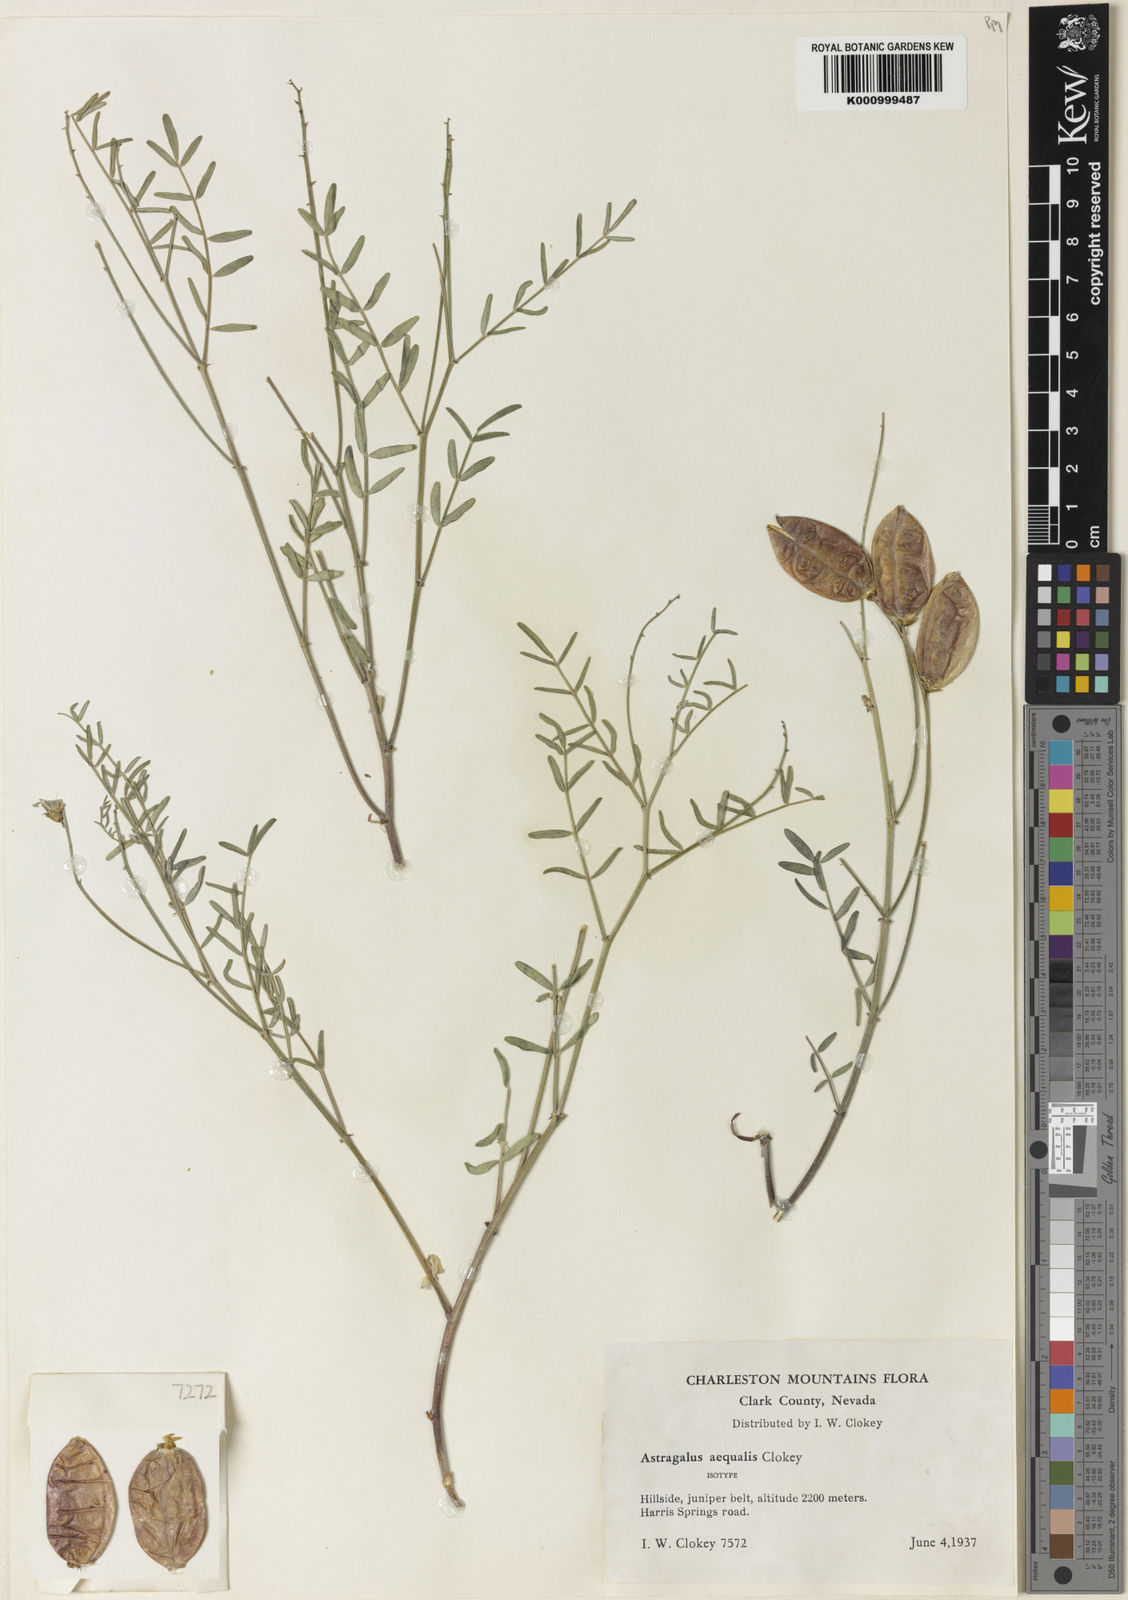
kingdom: Plantae
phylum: Tracheophyta
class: Magnoliopsida
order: Fabales
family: Fabaceae
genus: Astragalus
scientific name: Astragalus aequalis
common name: Clokey milk-vetch
